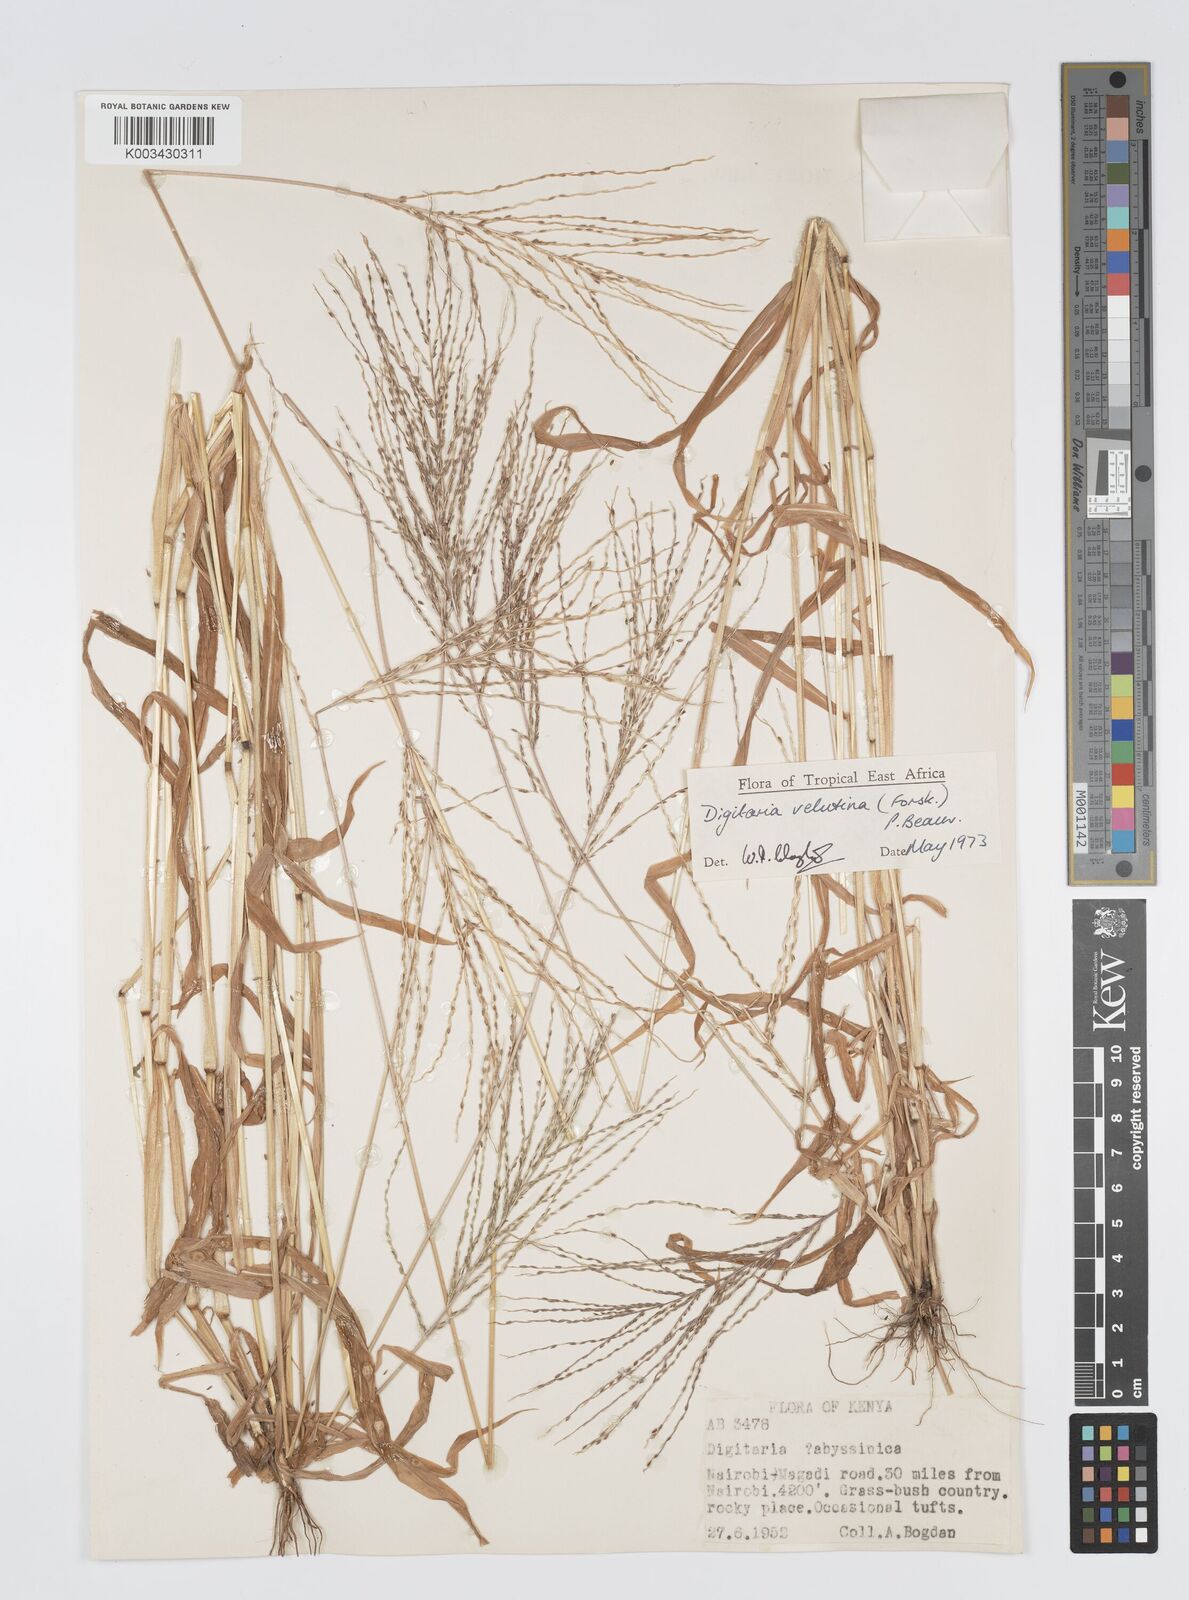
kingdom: Plantae
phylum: Tracheophyta
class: Liliopsida
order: Poales
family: Poaceae
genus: Digitaria
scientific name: Digitaria velutina
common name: Long-plume finger grass
